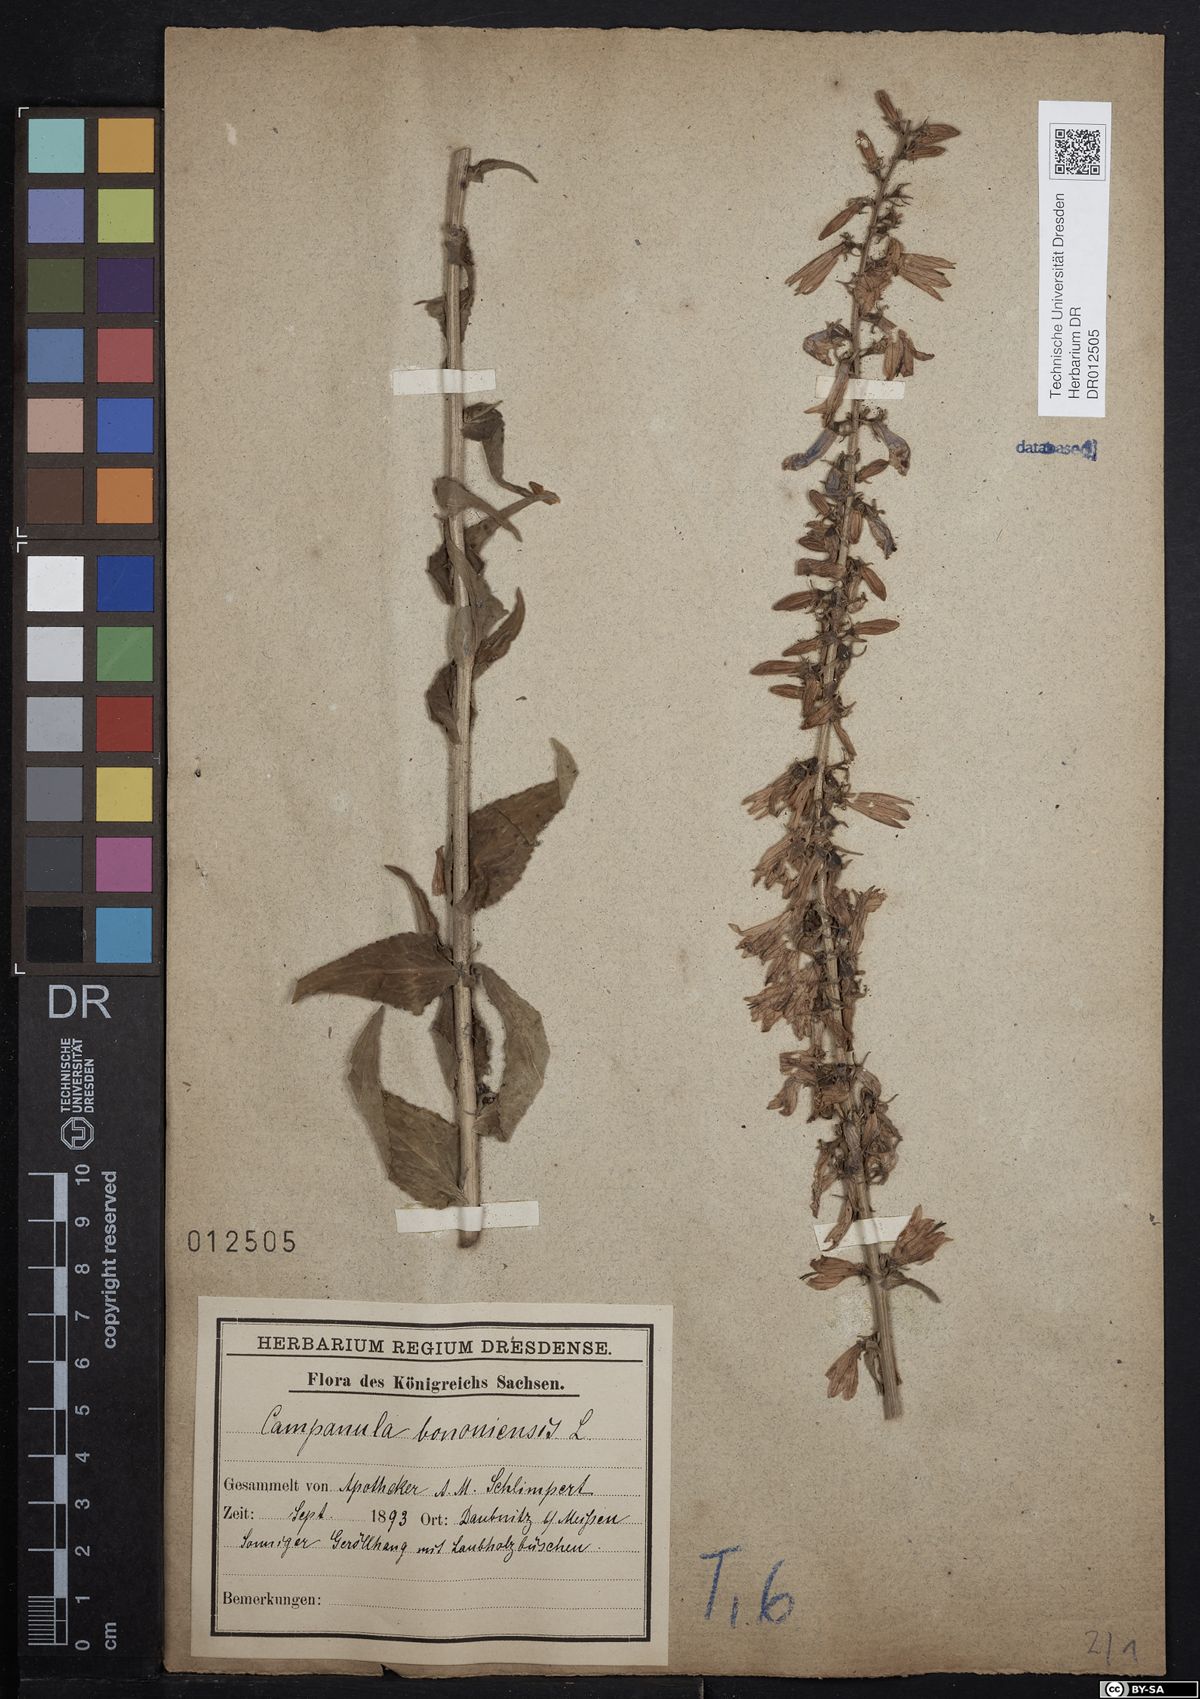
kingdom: Plantae
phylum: Tracheophyta
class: Magnoliopsida
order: Asterales
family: Campanulaceae
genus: Campanula
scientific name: Campanula bononiensis
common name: Pale bellflower
